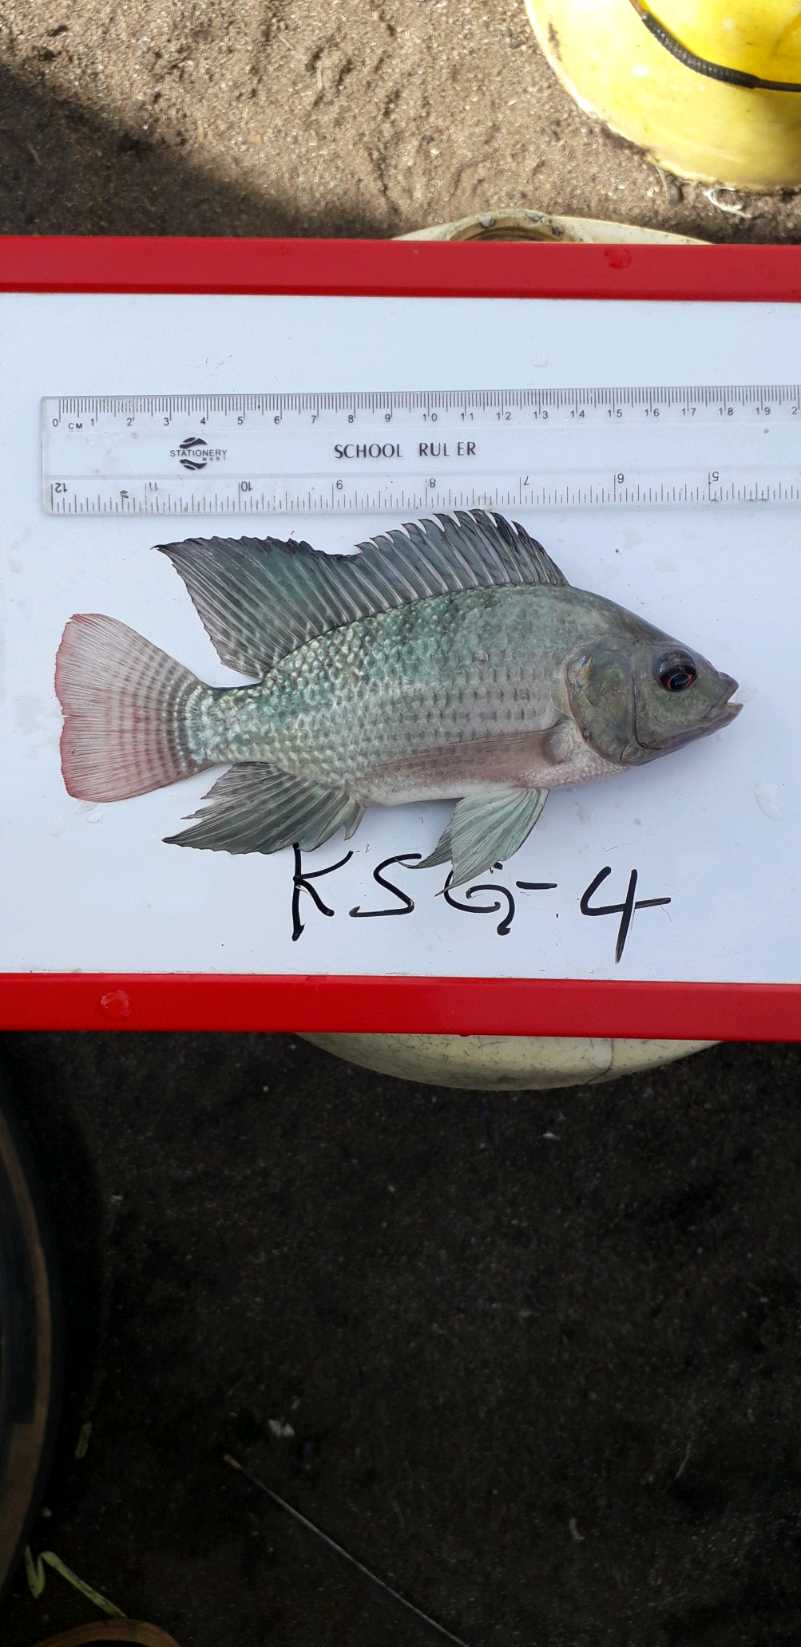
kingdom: Animalia
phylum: Chordata
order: Perciformes
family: Cichlidae
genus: Oreochromis
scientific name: Oreochromis niloticus
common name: Nile tilapia
